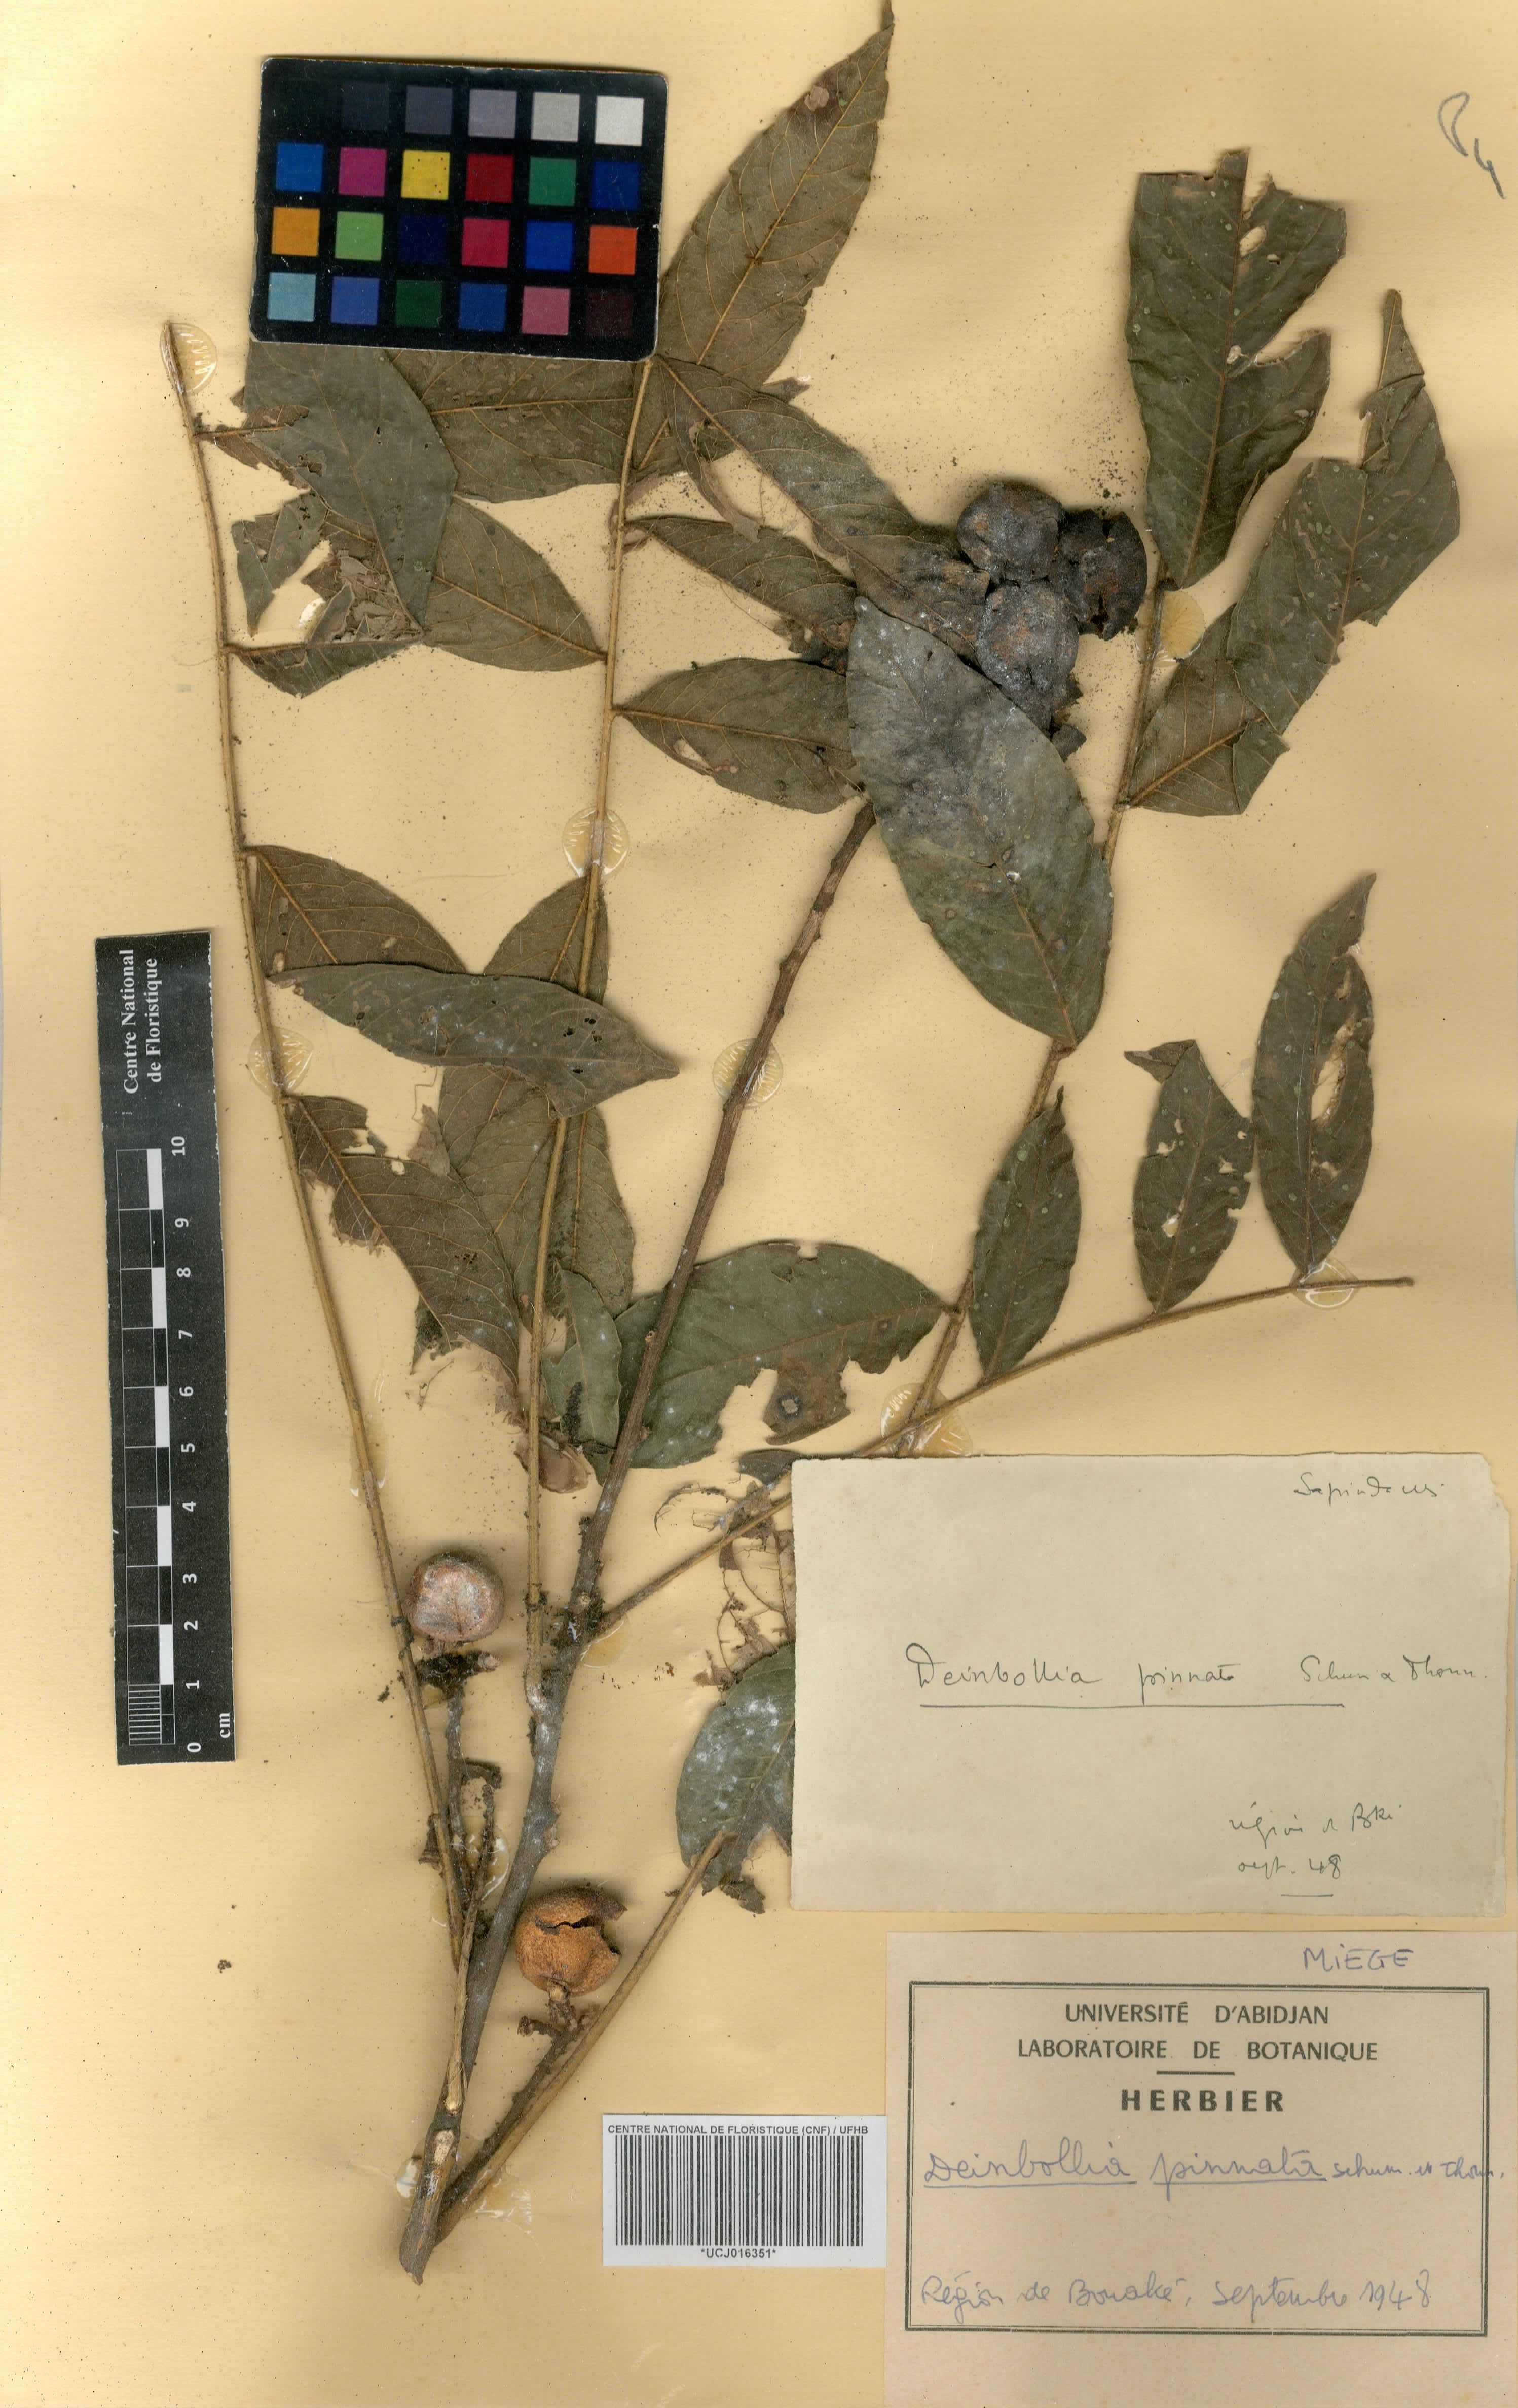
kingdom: Plantae
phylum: Tracheophyta
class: Magnoliopsida
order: Sapindales
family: Sapindaceae
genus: Deinbollia
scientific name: Deinbollia pinnata
